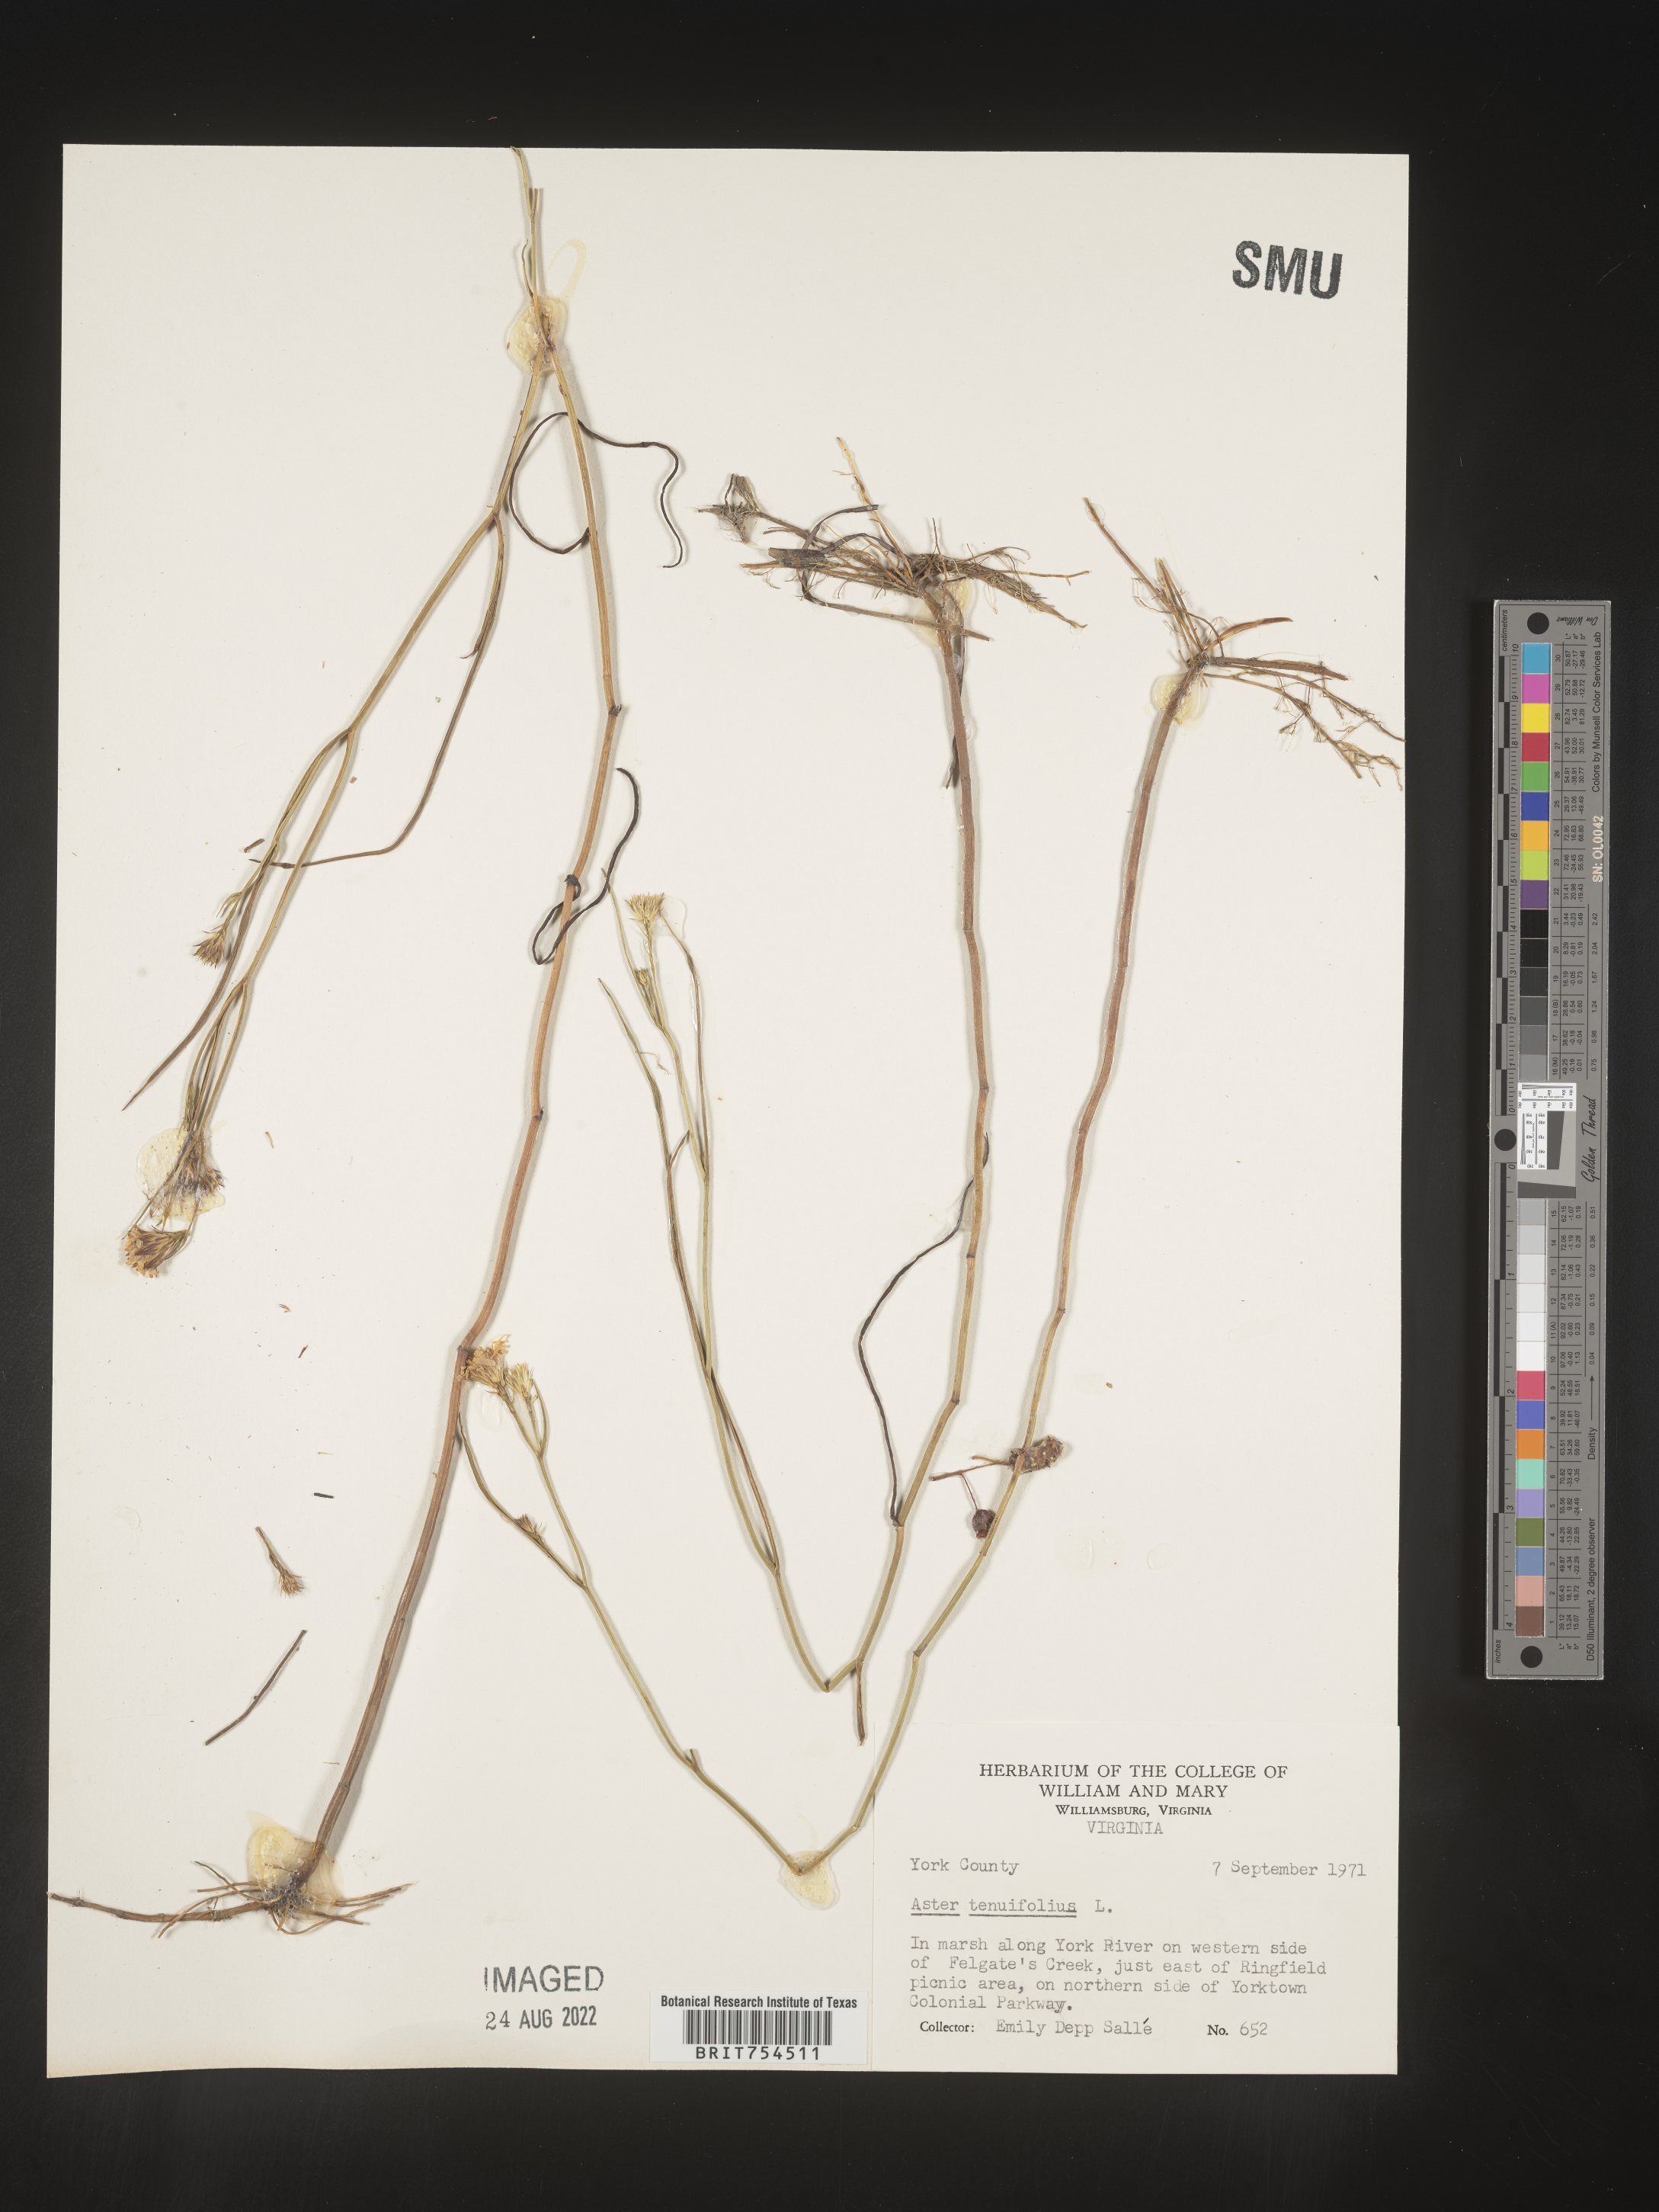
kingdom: Plantae
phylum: Tracheophyta
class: Magnoliopsida
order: Asterales
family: Asteraceae
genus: Symphyotrichum
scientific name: Symphyotrichum tenuifolium
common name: Perennial salt-marsh aster
